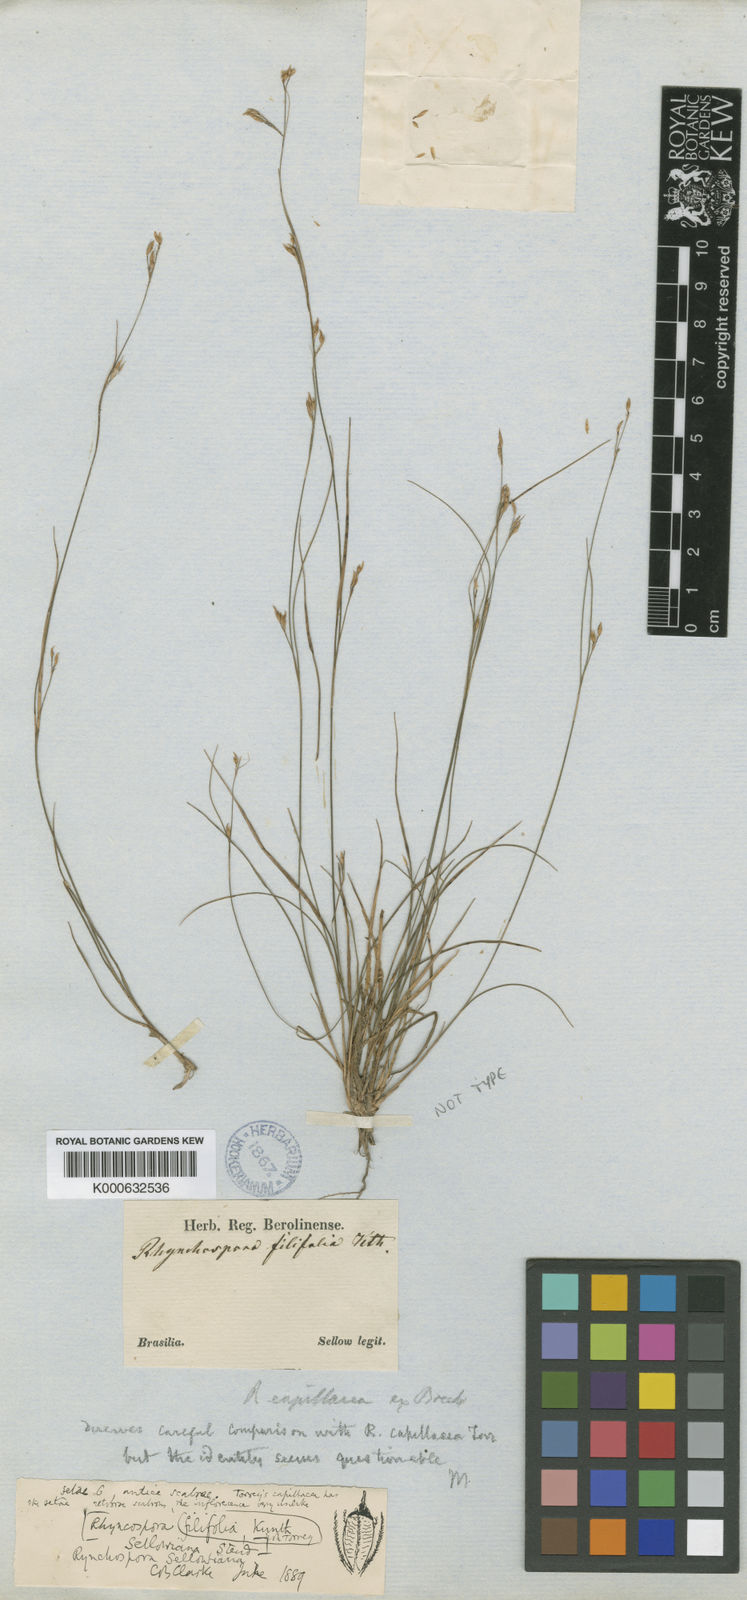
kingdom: Plantae
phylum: Tracheophyta
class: Liliopsida
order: Poales
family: Cyperaceae
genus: Rhynchospora
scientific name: Rhynchospora sellowiana
